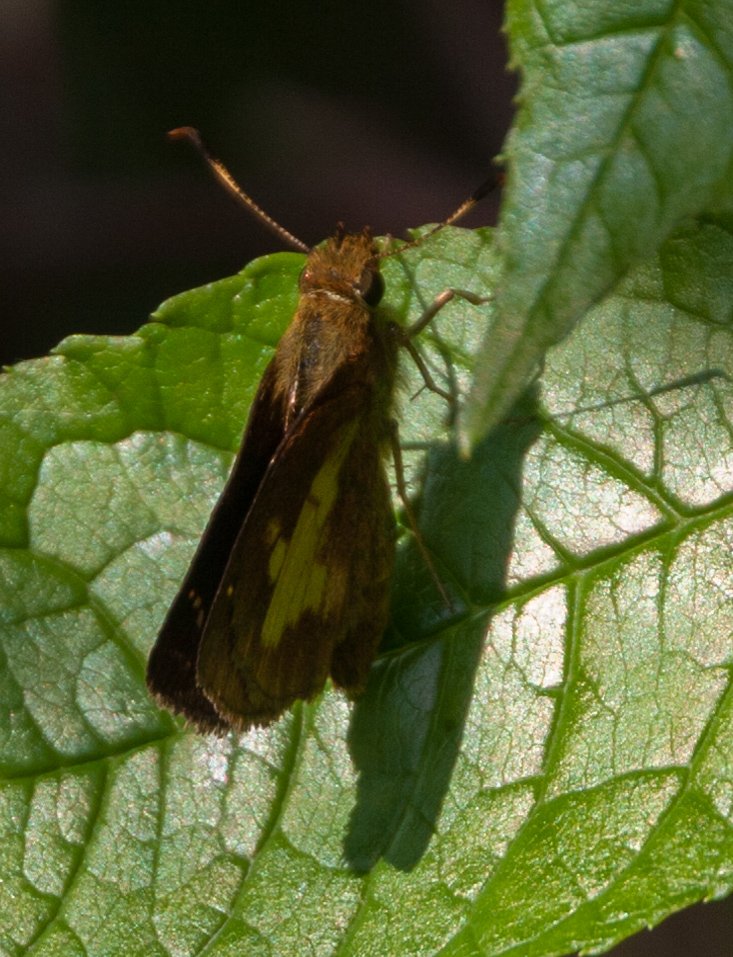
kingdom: Animalia
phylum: Arthropoda
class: Insecta
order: Lepidoptera
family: Hesperiidae
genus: Poanes
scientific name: Poanes massasoit
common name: Mulberry Wing
